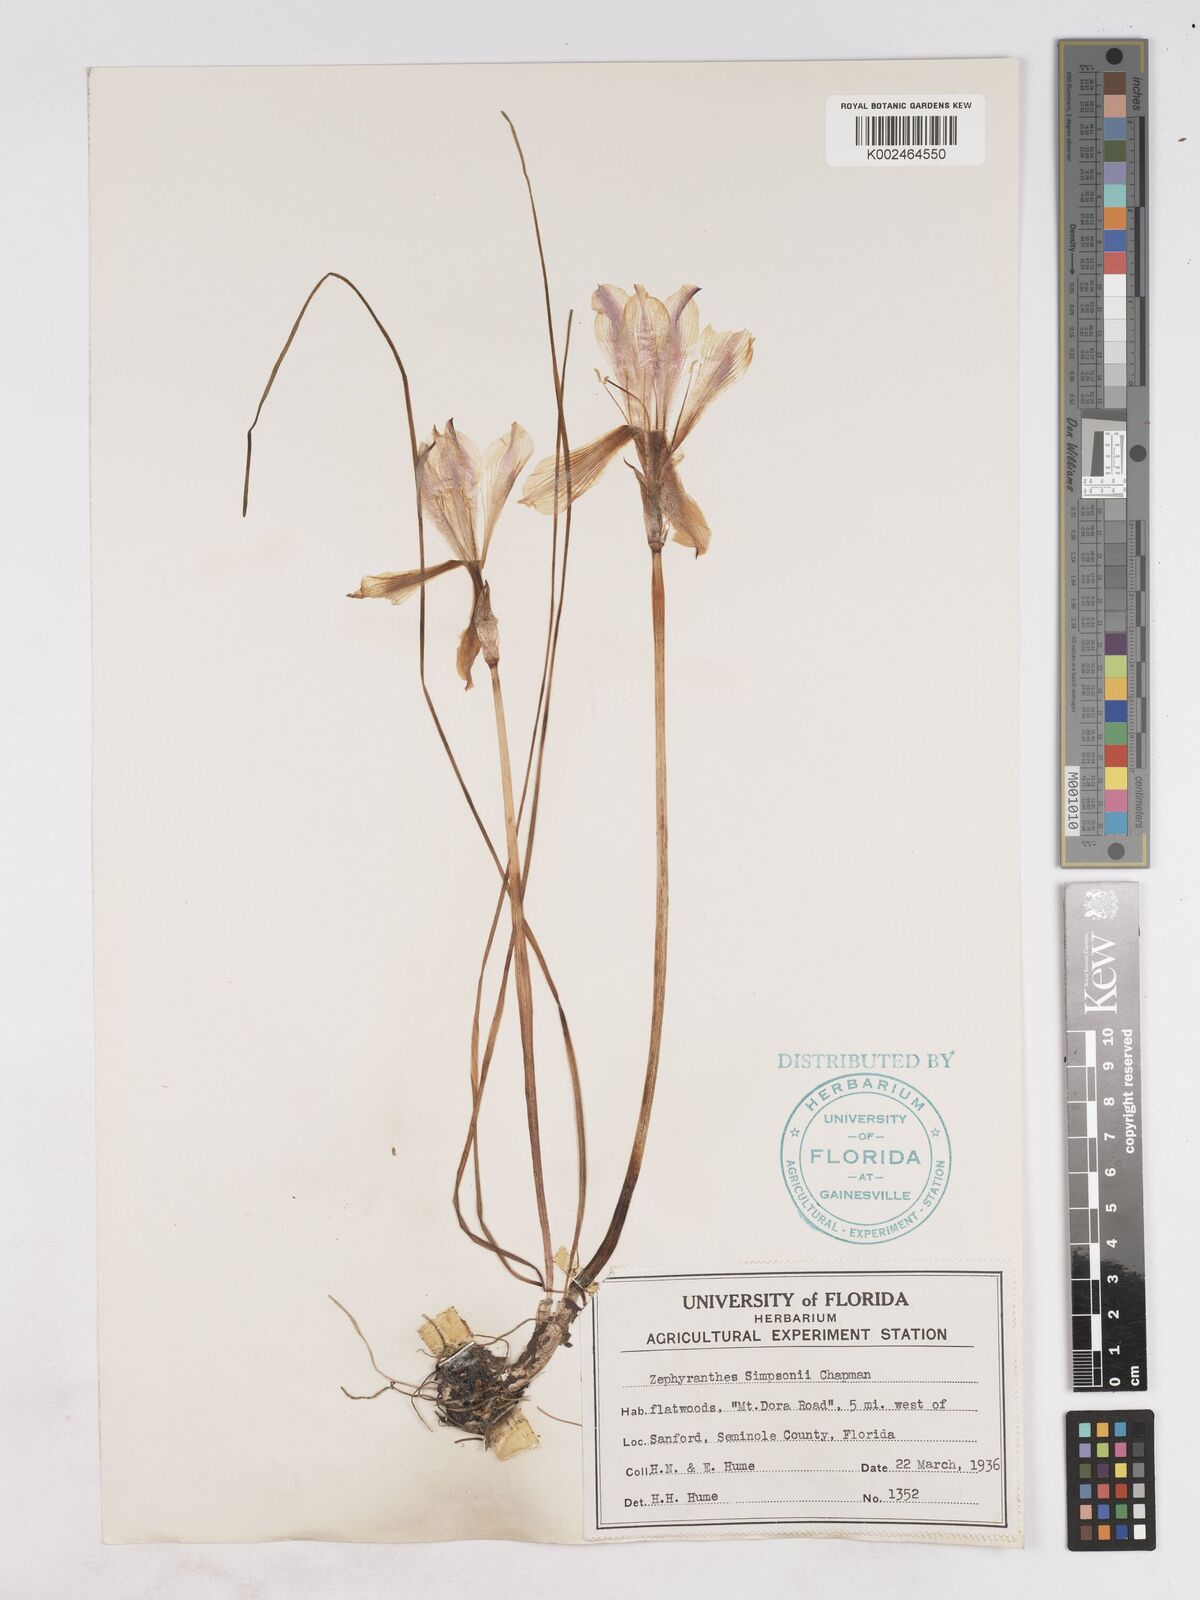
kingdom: Plantae
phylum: Tracheophyta
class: Liliopsida
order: Asparagales
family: Amaryllidaceae
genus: Zephyranthes
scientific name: Zephyranthes simpsonii
